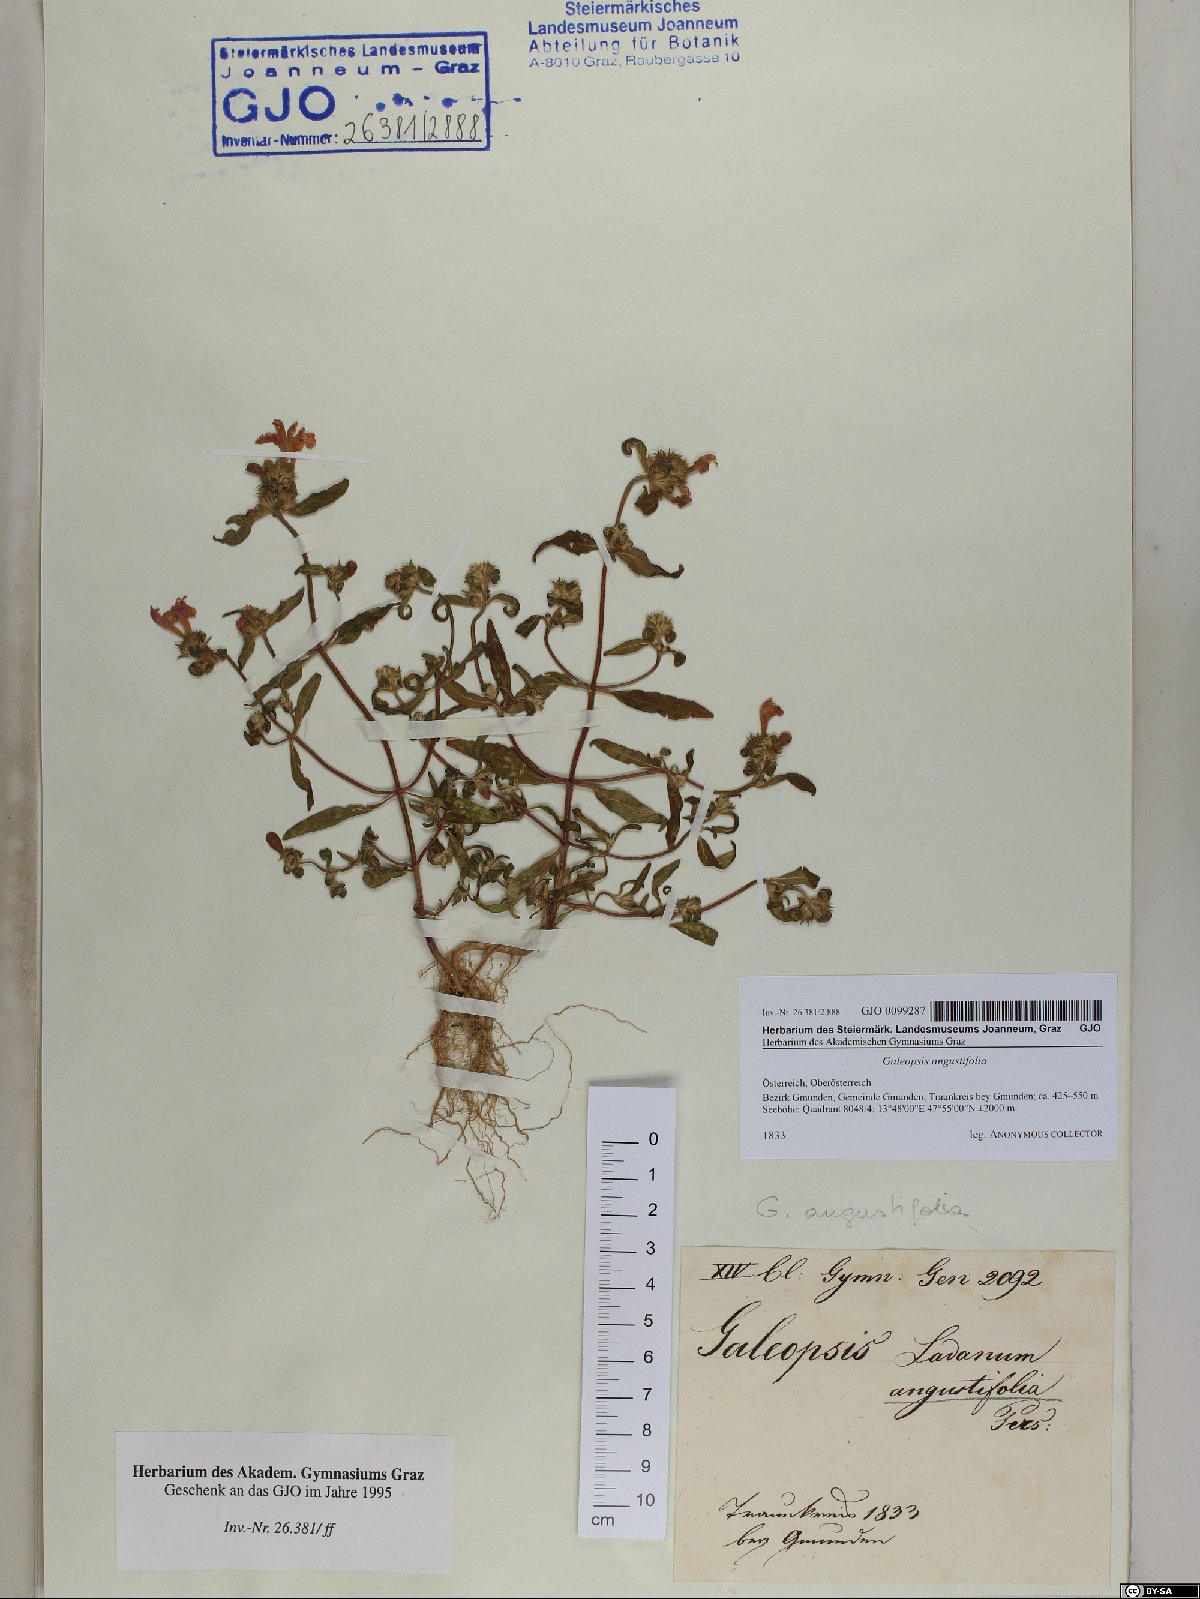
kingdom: Plantae
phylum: Tracheophyta
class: Magnoliopsida
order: Lamiales
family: Lamiaceae
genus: Galeopsis
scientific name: Galeopsis angustifolia
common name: Red hemp-nettle
